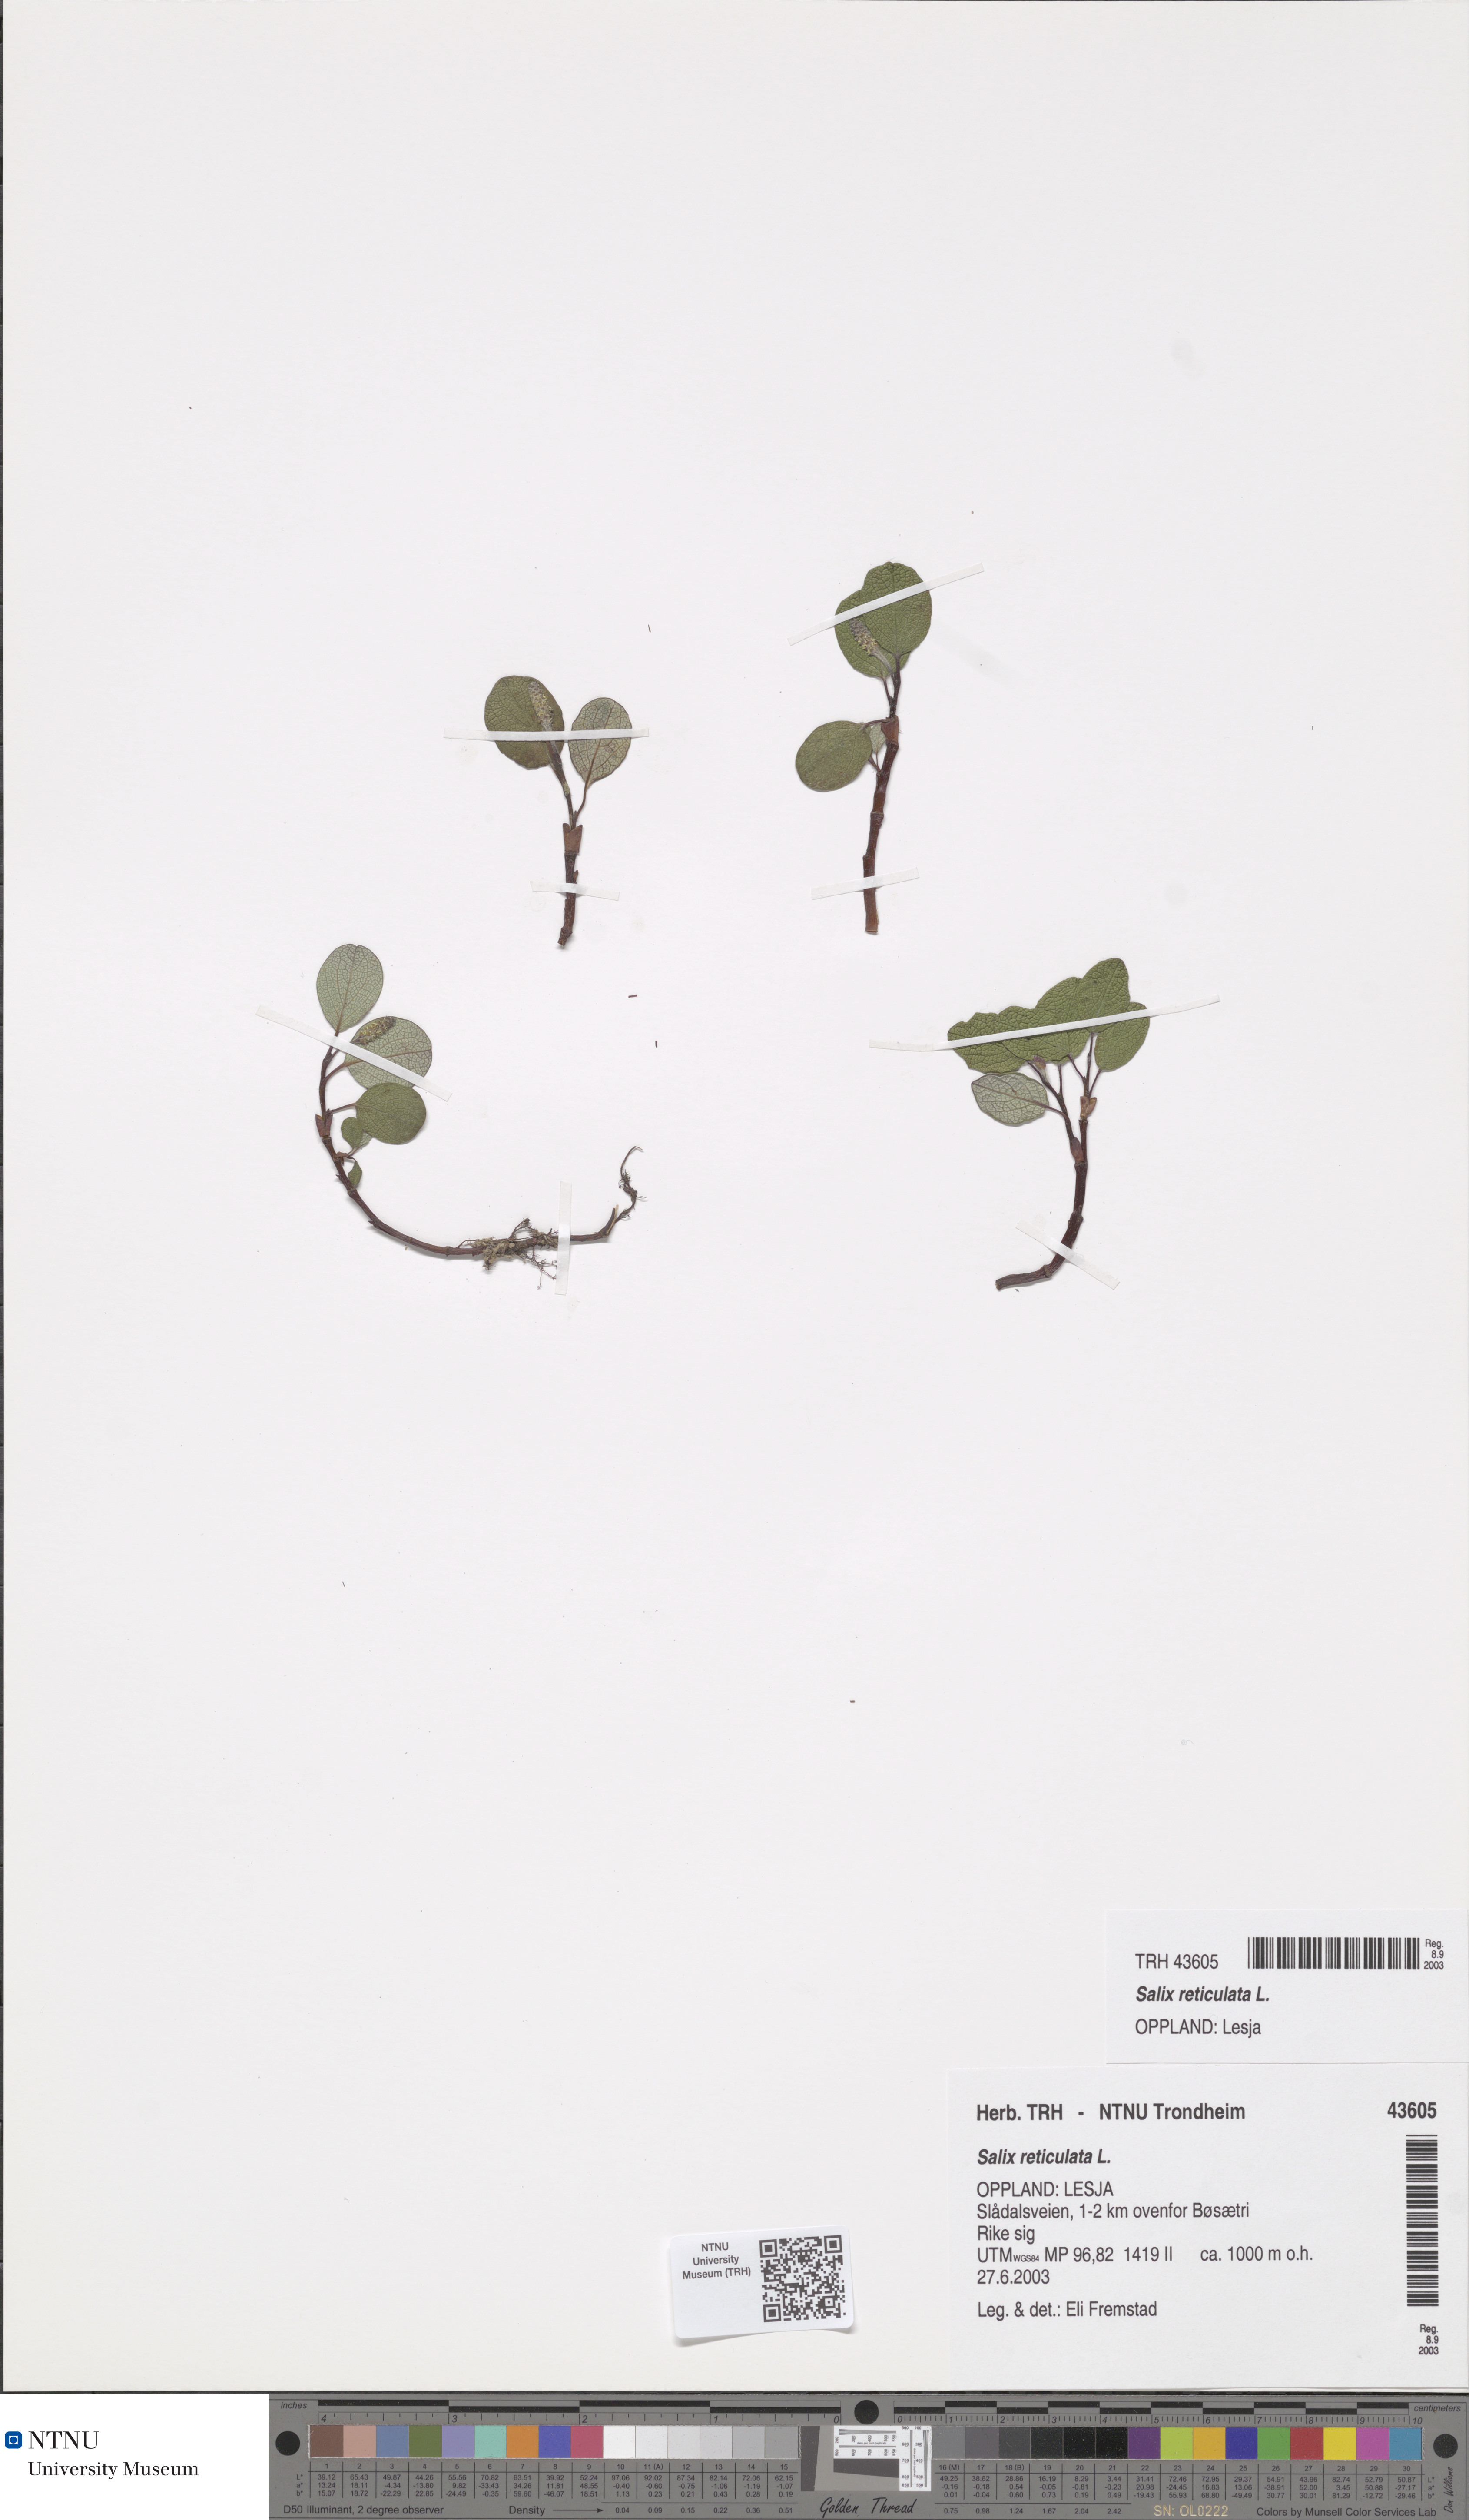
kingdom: Plantae
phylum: Tracheophyta
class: Magnoliopsida
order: Malpighiales
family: Salicaceae
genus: Salix
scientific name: Salix reticulata
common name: Net-leaved willow
